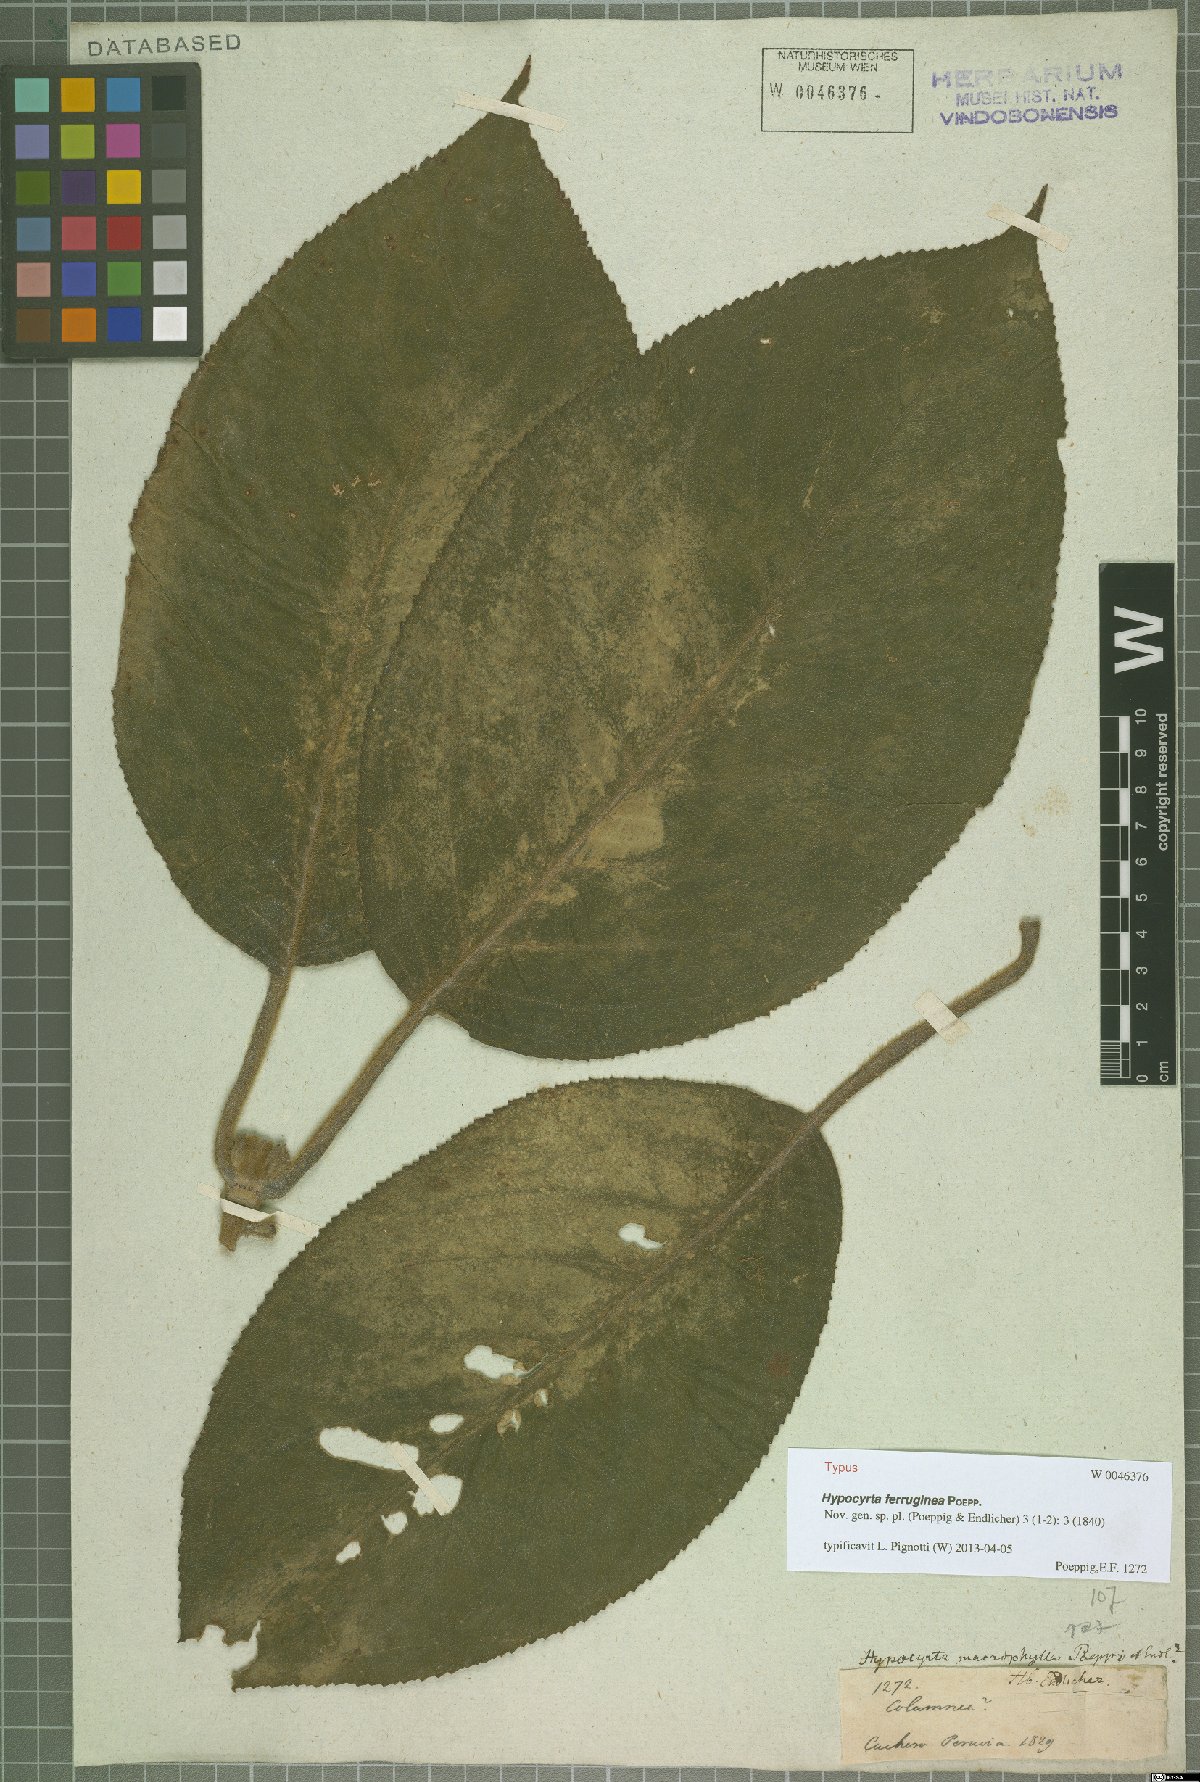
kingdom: Plantae
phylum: Tracheophyta
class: Magnoliopsida
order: Lamiales
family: Gesneriaceae
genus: Nematanthus
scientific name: Nematanthus Hypocyrta ferruginea
